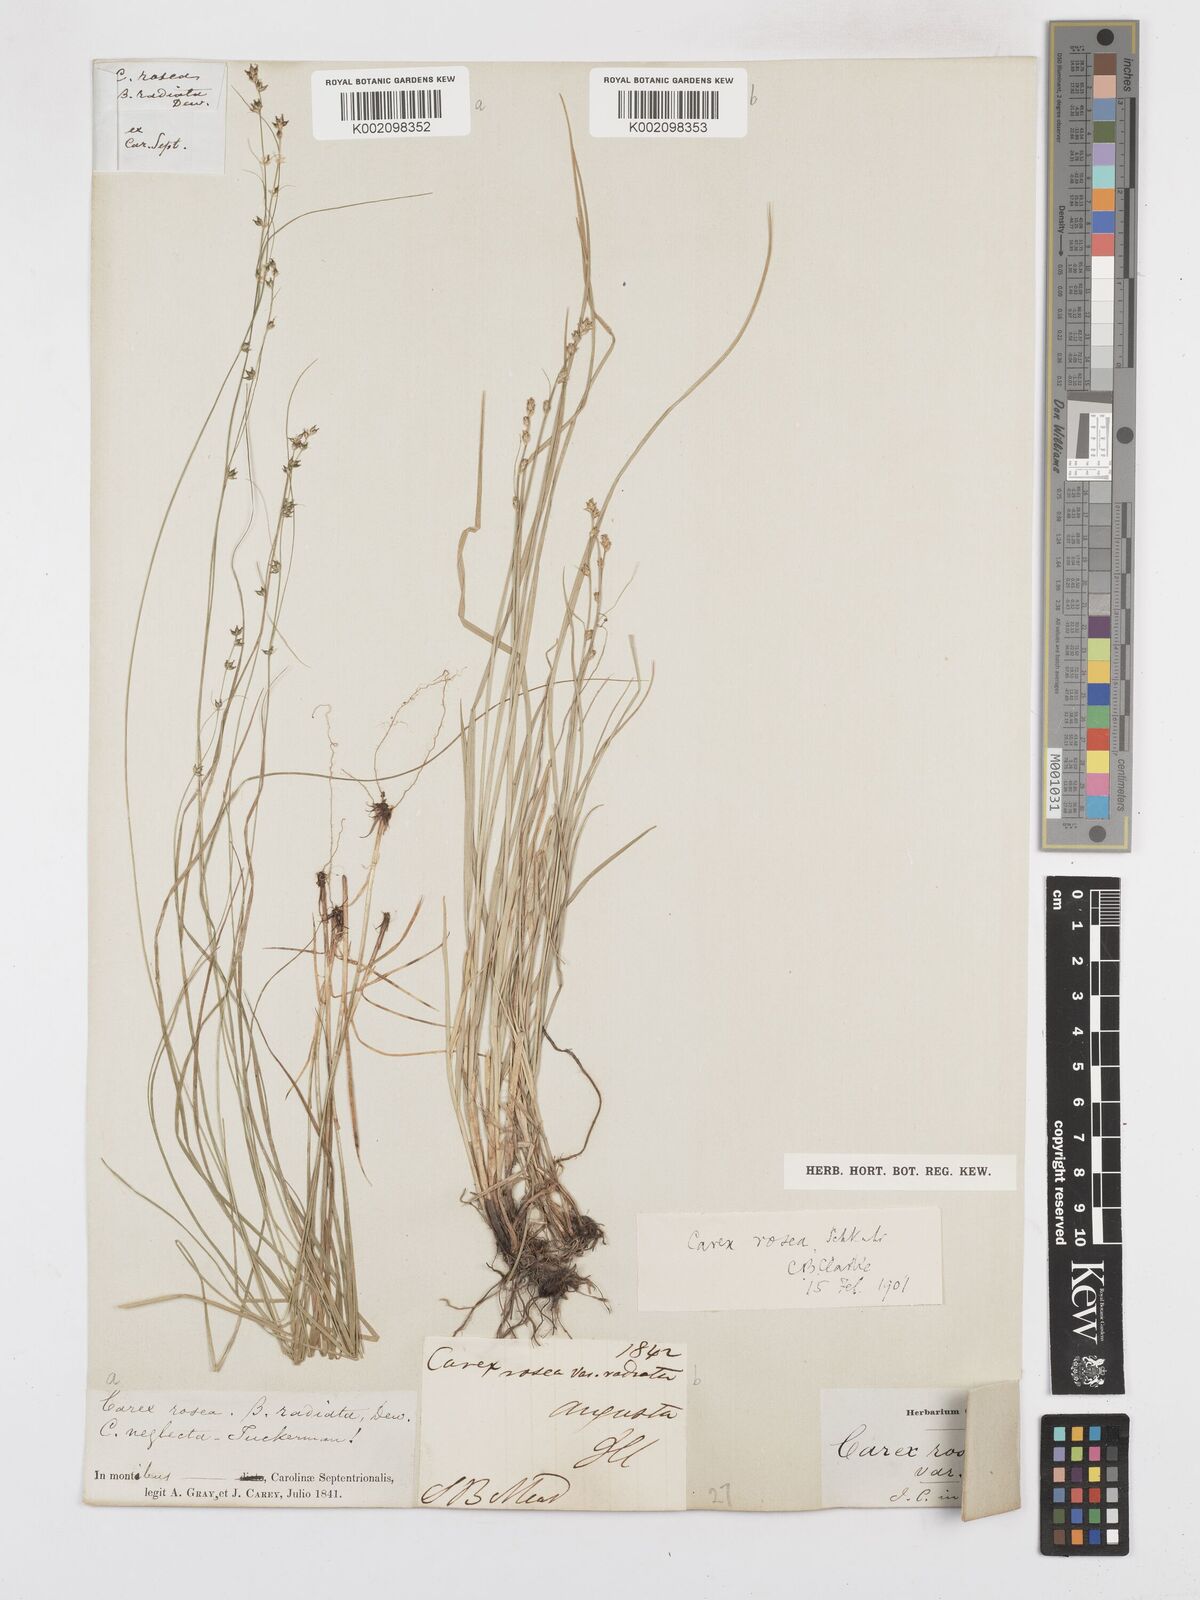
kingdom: Plantae
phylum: Tracheophyta
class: Liliopsida
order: Poales
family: Cyperaceae
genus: Carex
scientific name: Carex rosea
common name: Curly-styled wood sedge
